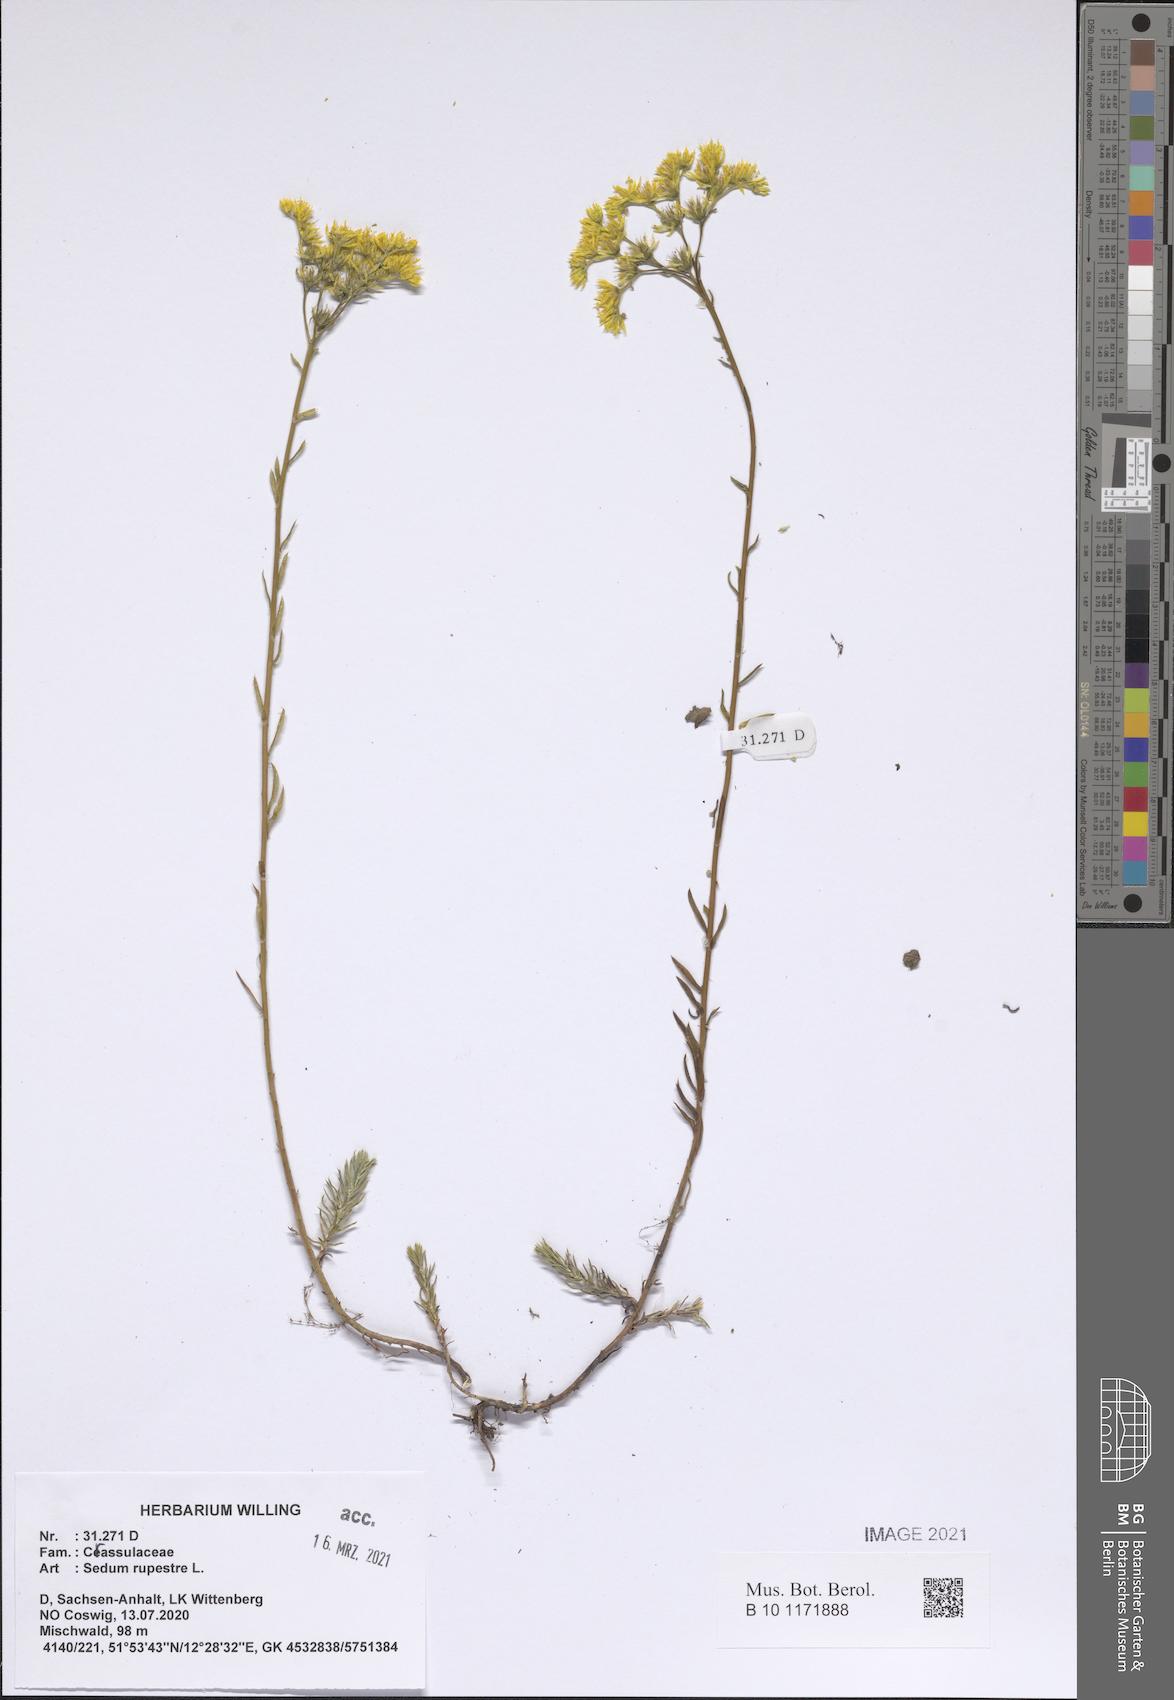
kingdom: Plantae
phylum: Tracheophyta
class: Magnoliopsida
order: Saxifragales
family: Crassulaceae
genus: Petrosedum
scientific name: Petrosedum rupestre
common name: Jenny's stonecrop
